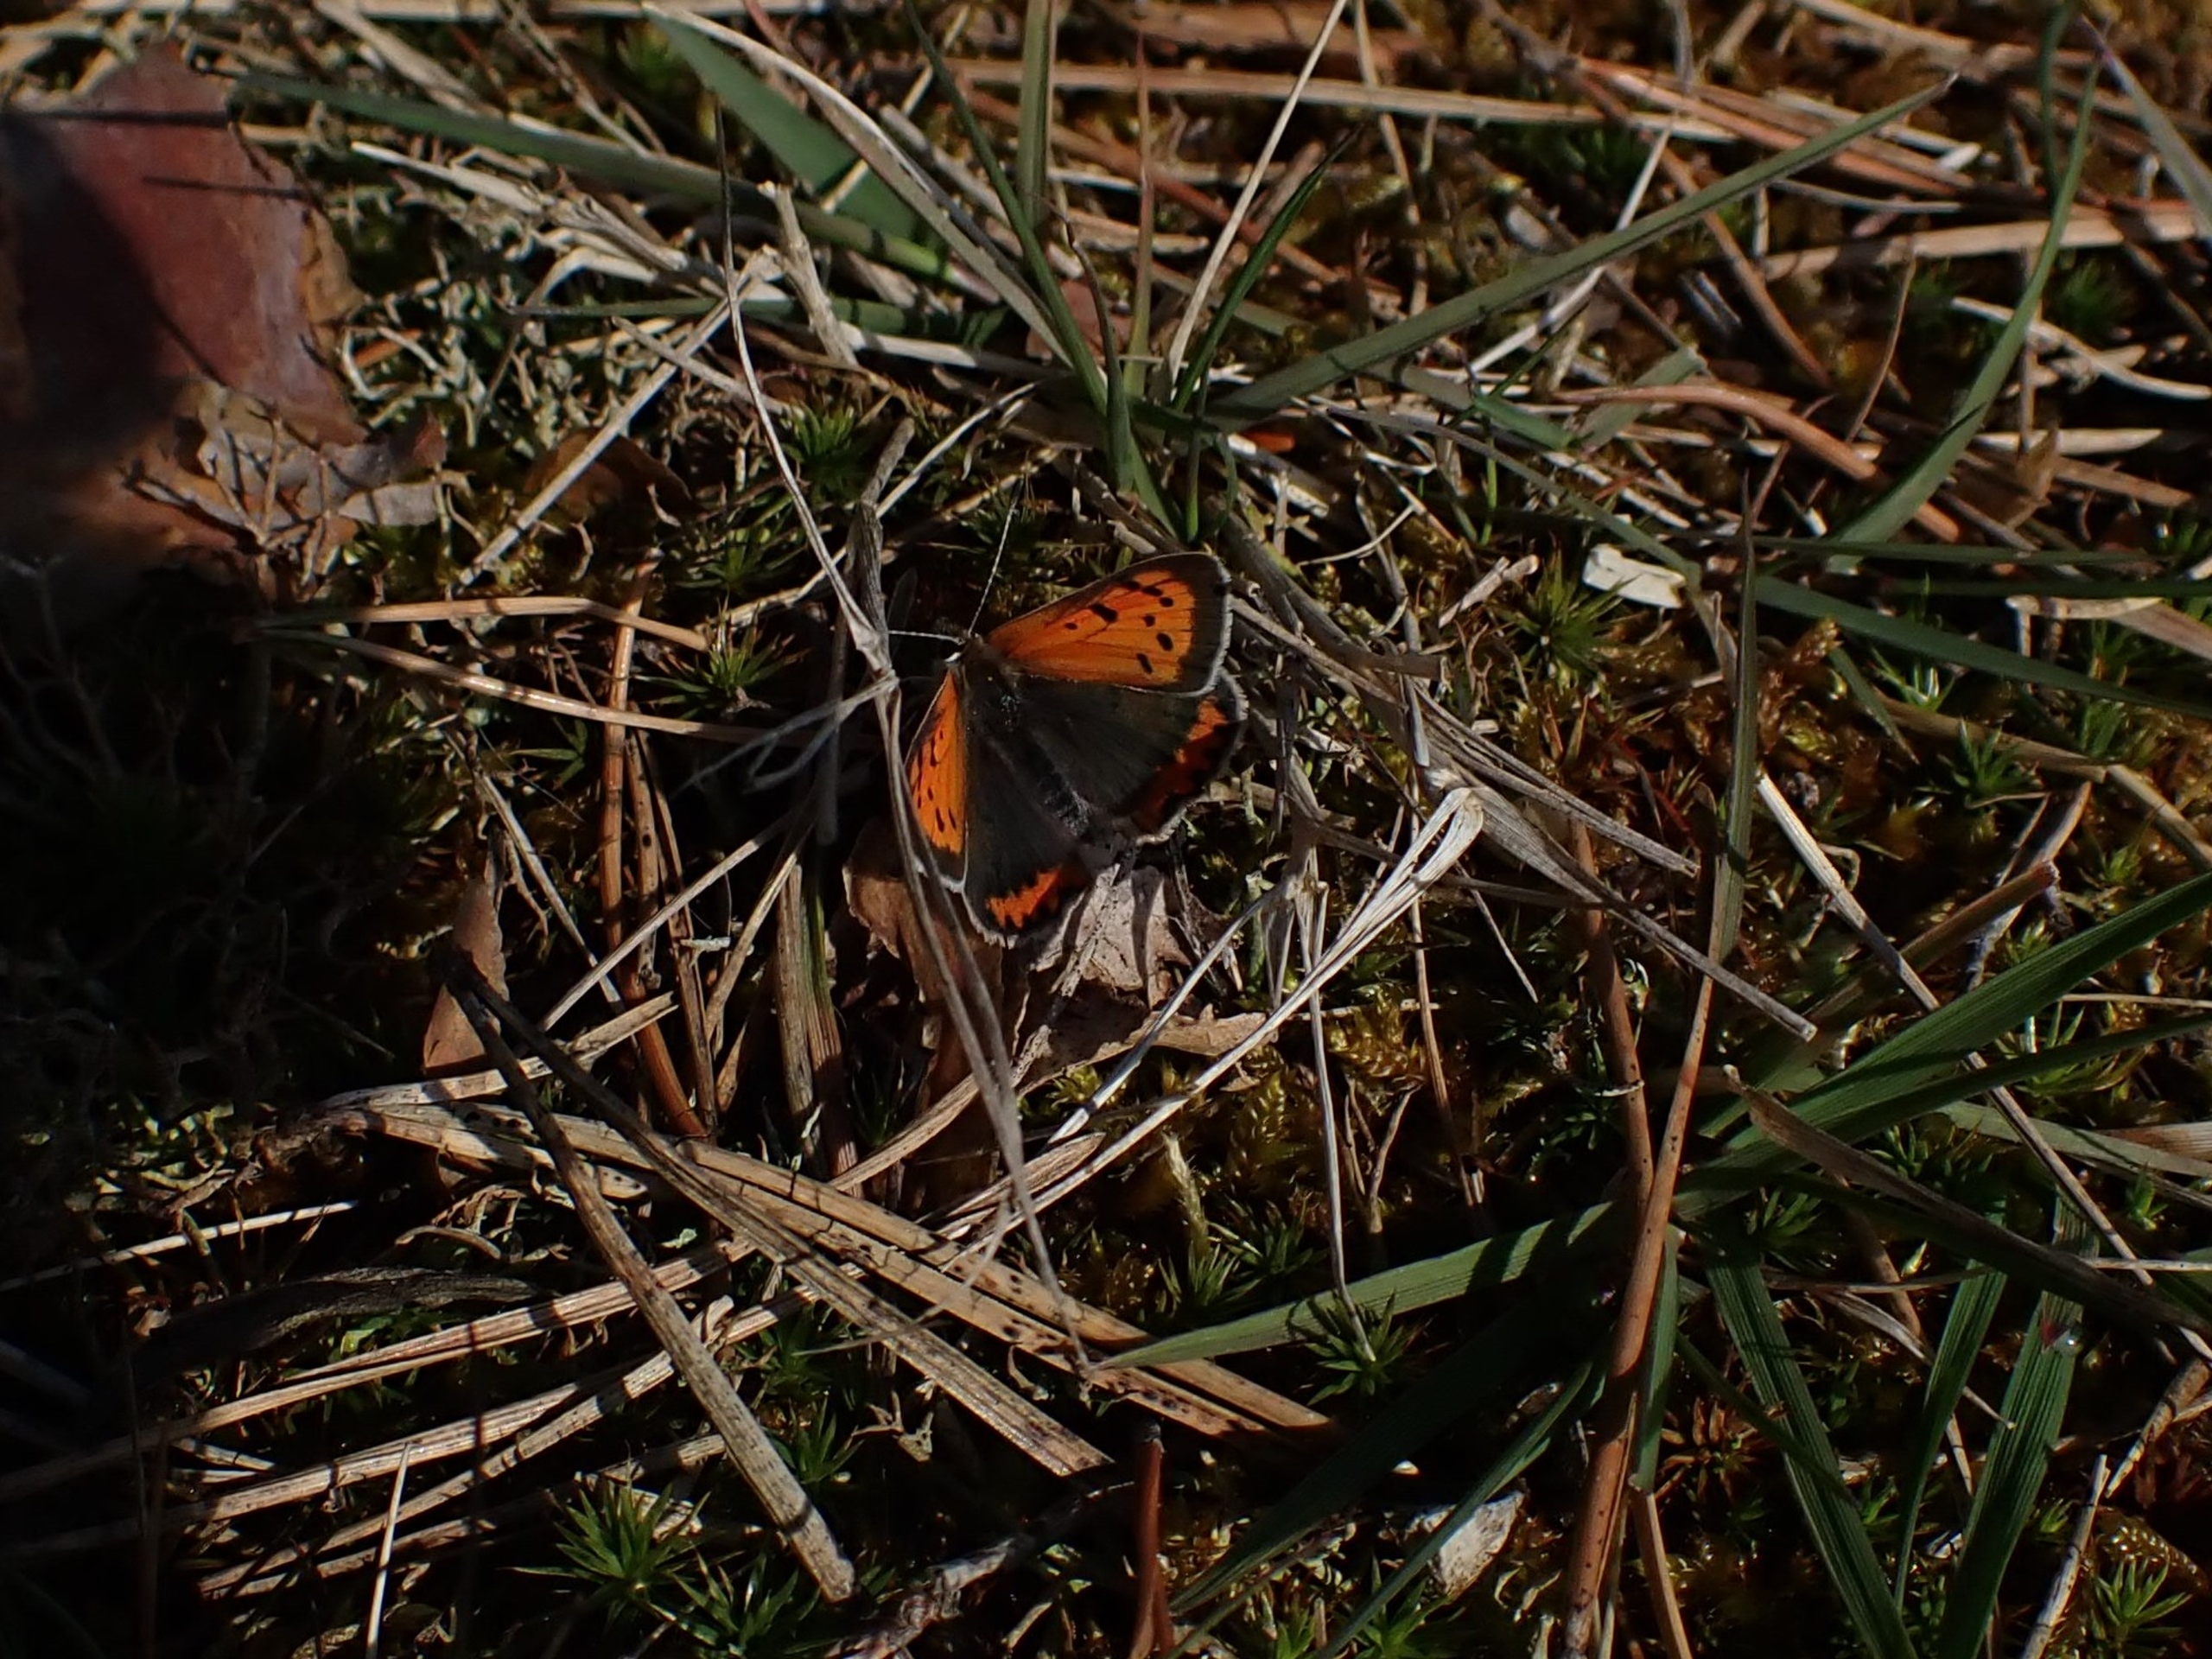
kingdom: Animalia
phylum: Arthropoda
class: Insecta
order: Lepidoptera
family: Lycaenidae
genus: Lycaena
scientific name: Lycaena phlaeas
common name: Lille ildfugl
